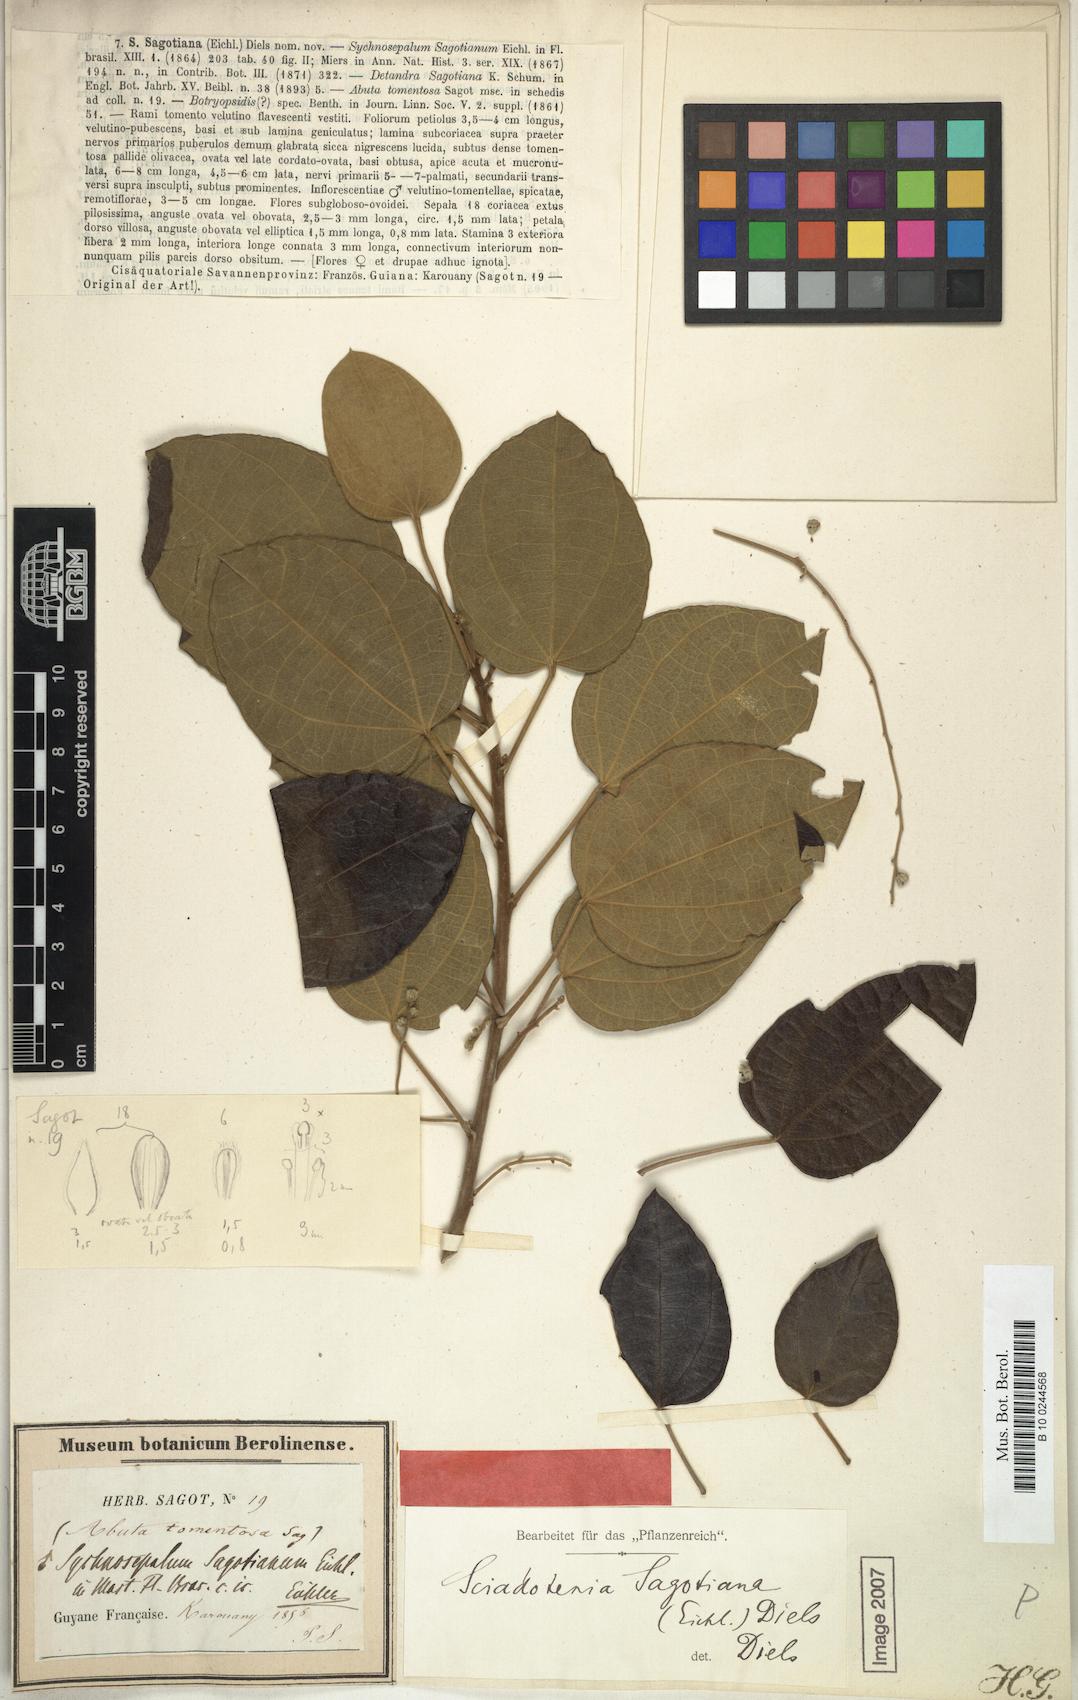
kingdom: Plantae
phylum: Tracheophyta
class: Magnoliopsida
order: Ranunculales
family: Menispermaceae
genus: Sciadotenia
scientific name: Sciadotenia sagotiana
